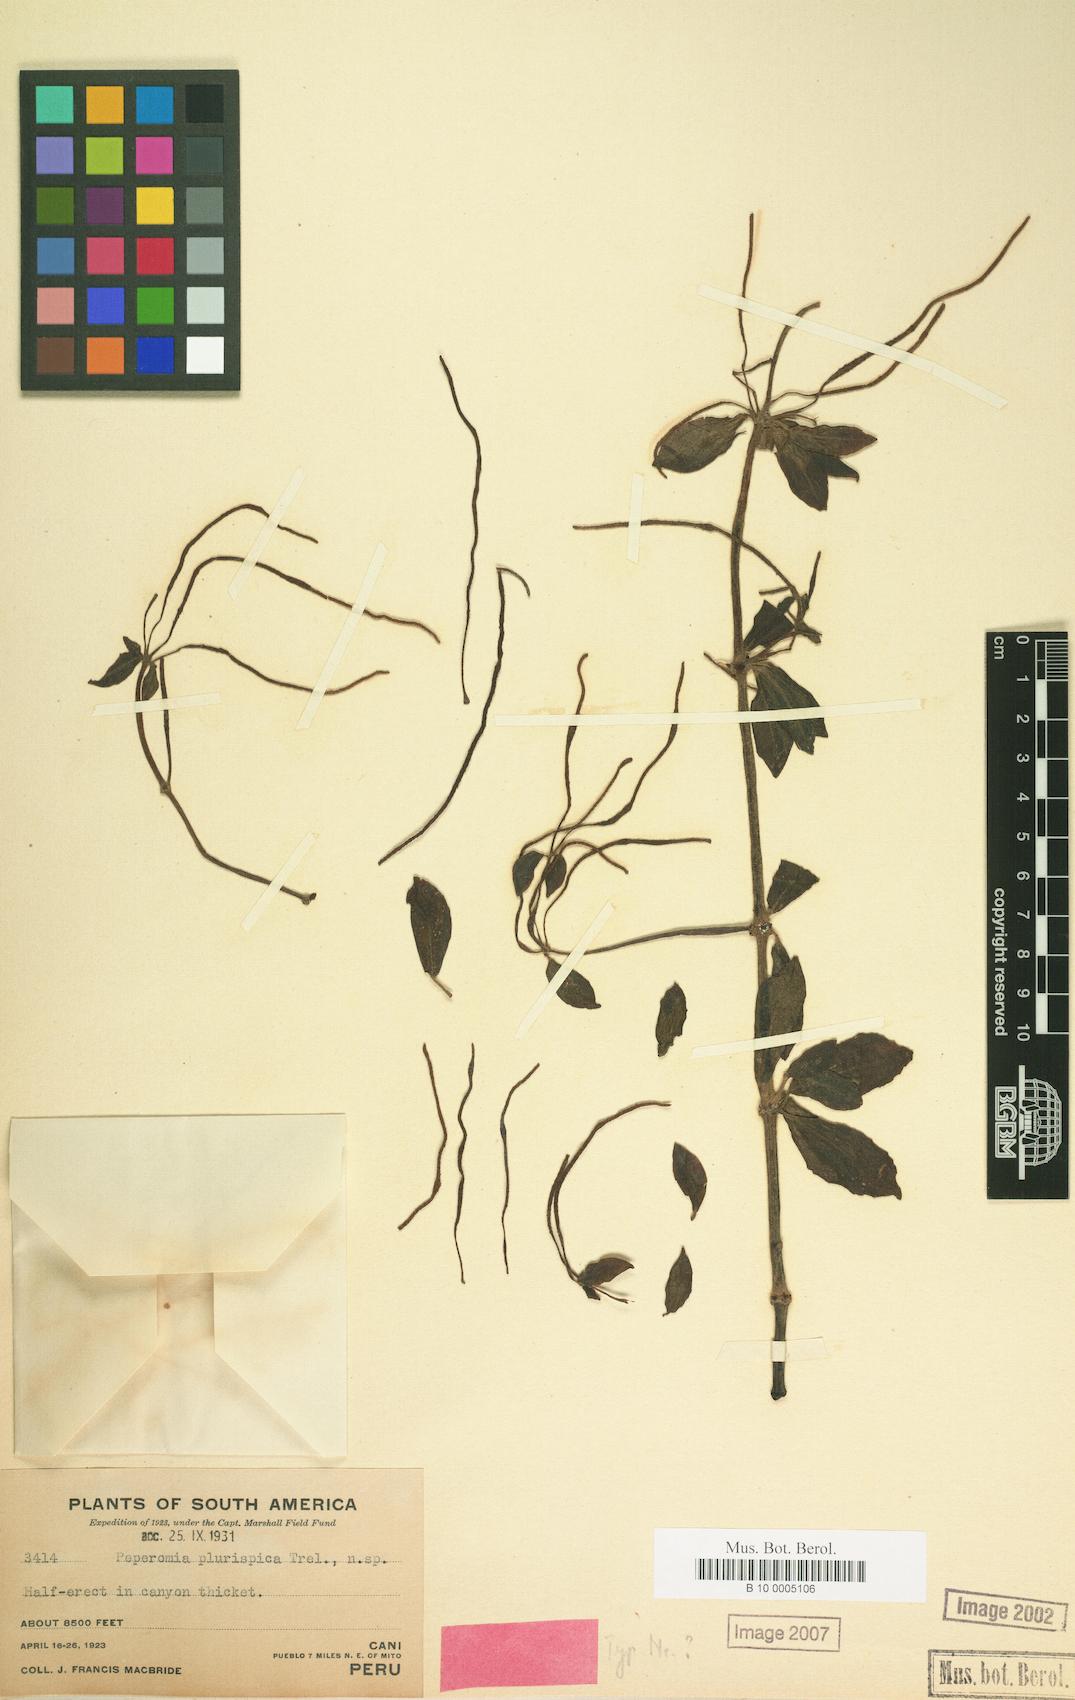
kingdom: Plantae
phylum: Tracheophyta
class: Magnoliopsida
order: Piperales
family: Piperaceae
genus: Peperomia
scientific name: Peperomia plurispica
